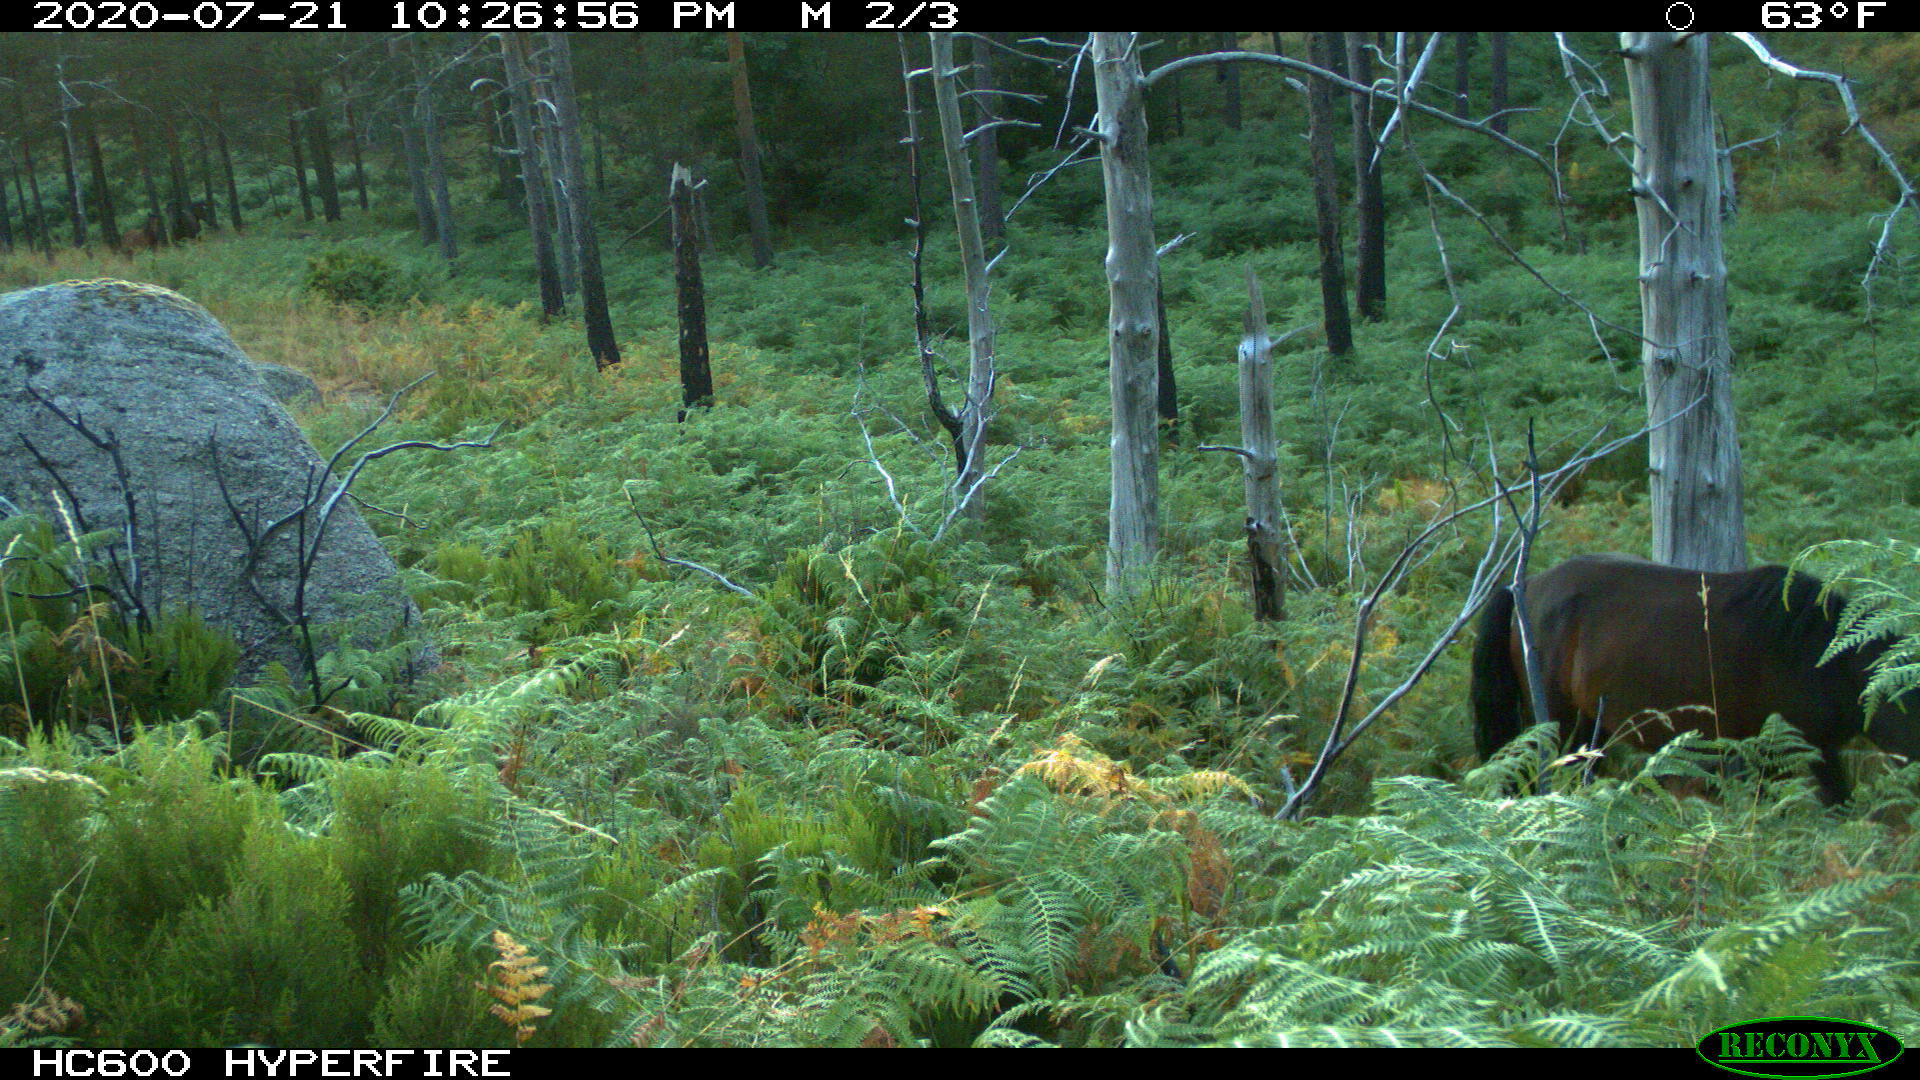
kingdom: Animalia
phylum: Chordata
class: Mammalia
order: Perissodactyla
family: Equidae
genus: Equus
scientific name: Equus caballus
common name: Horse
